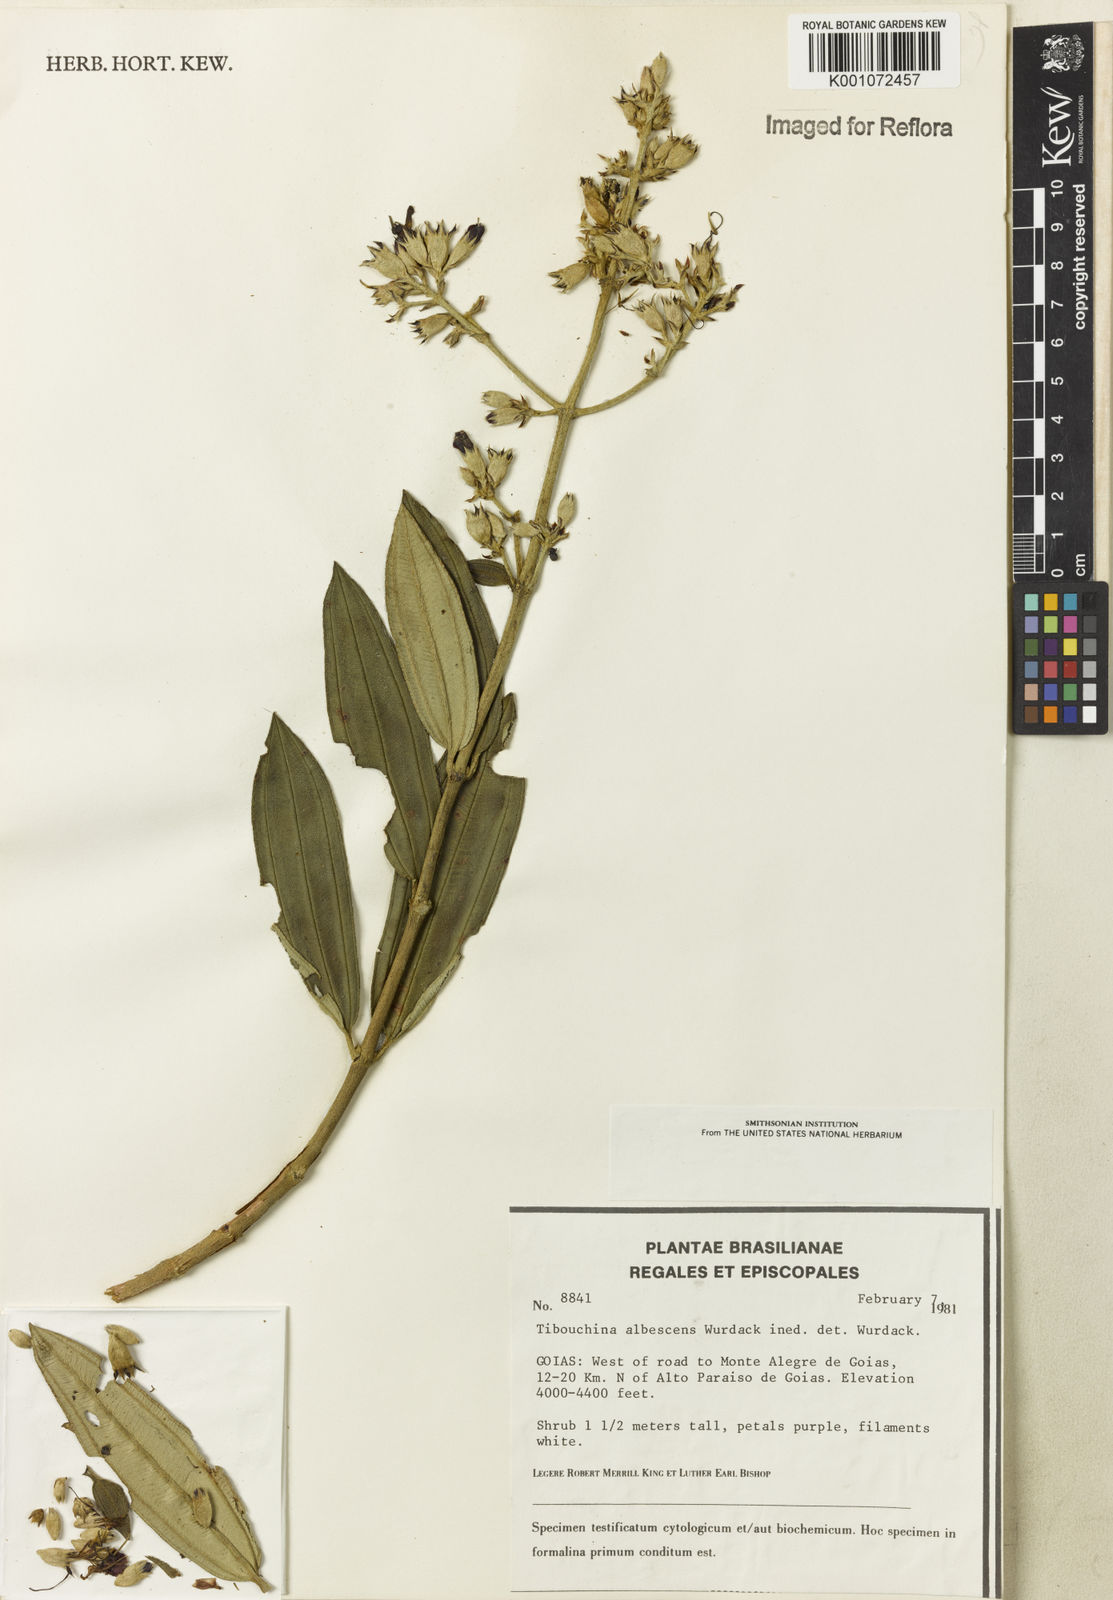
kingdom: Plantae
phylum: Tracheophyta
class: Magnoliopsida
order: Myrtales
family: Melastomataceae
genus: Tibouchina
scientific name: Tibouchina
